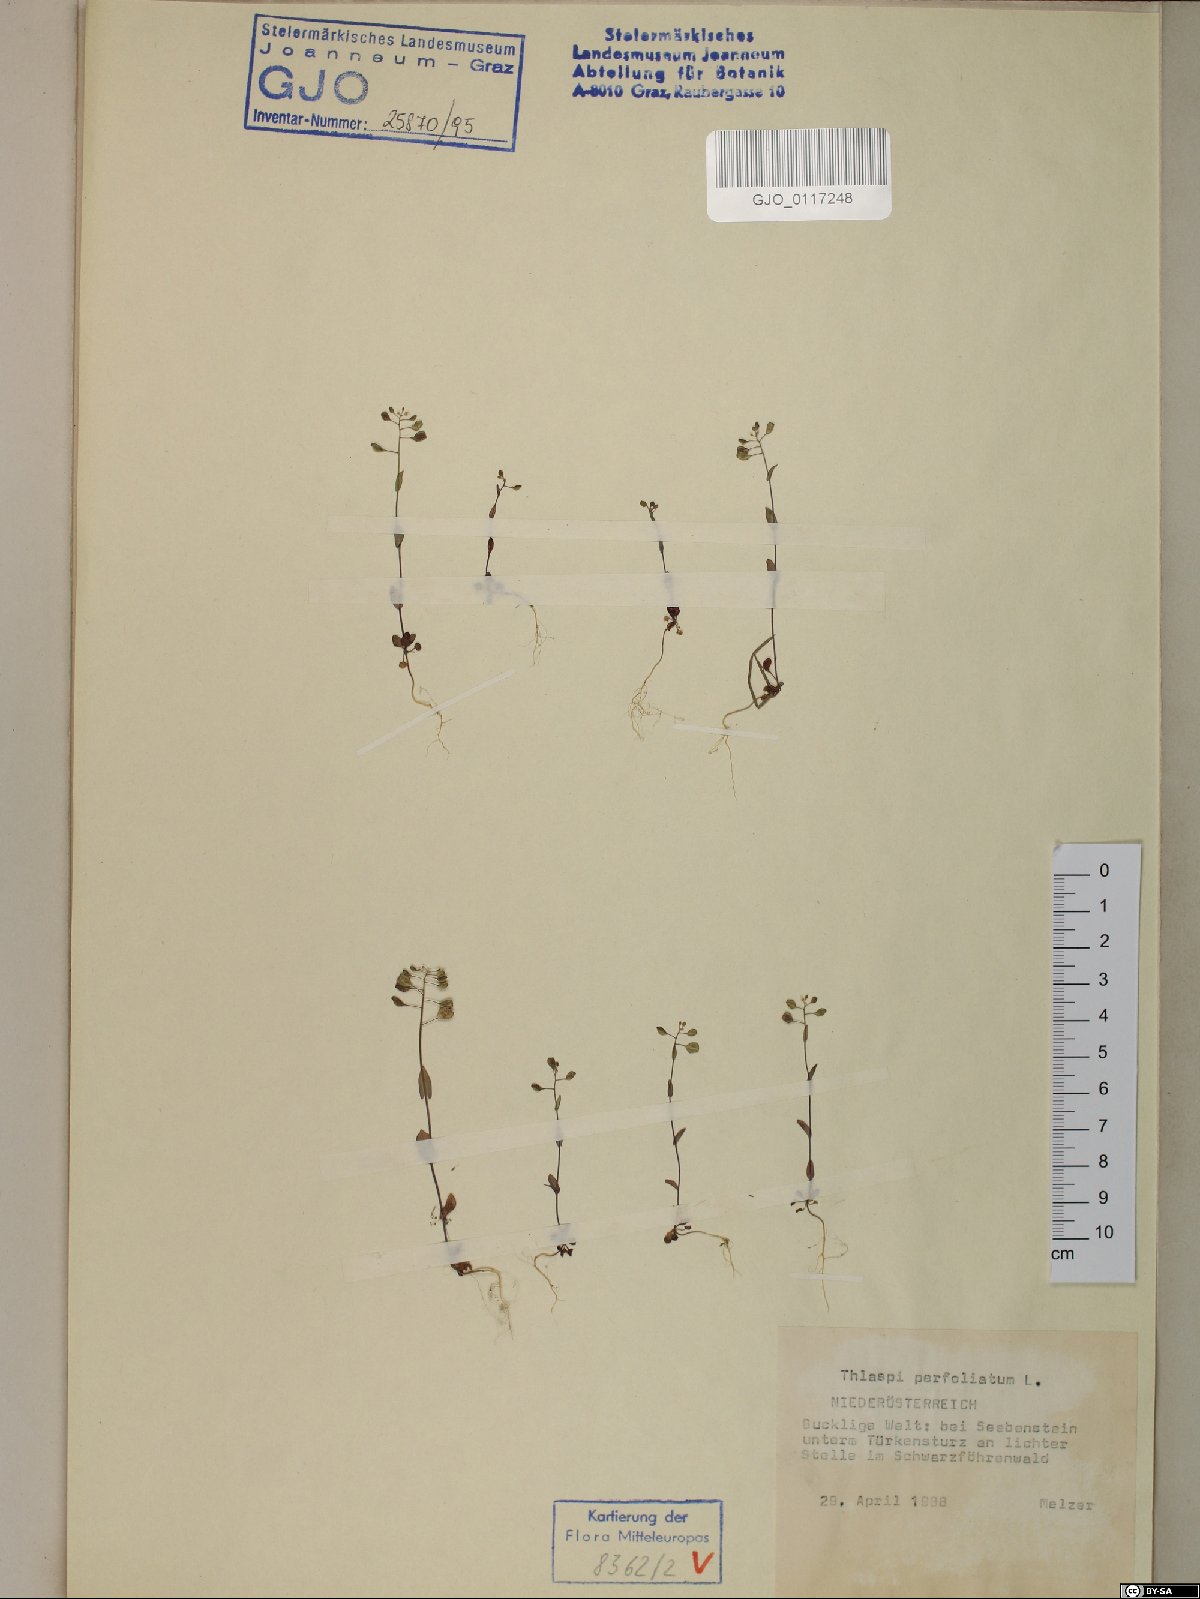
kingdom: Plantae
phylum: Tracheophyta
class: Magnoliopsida
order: Brassicales
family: Brassicaceae
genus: Noccaea
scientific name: Noccaea perfoliata
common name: Perfoliate pennycress
